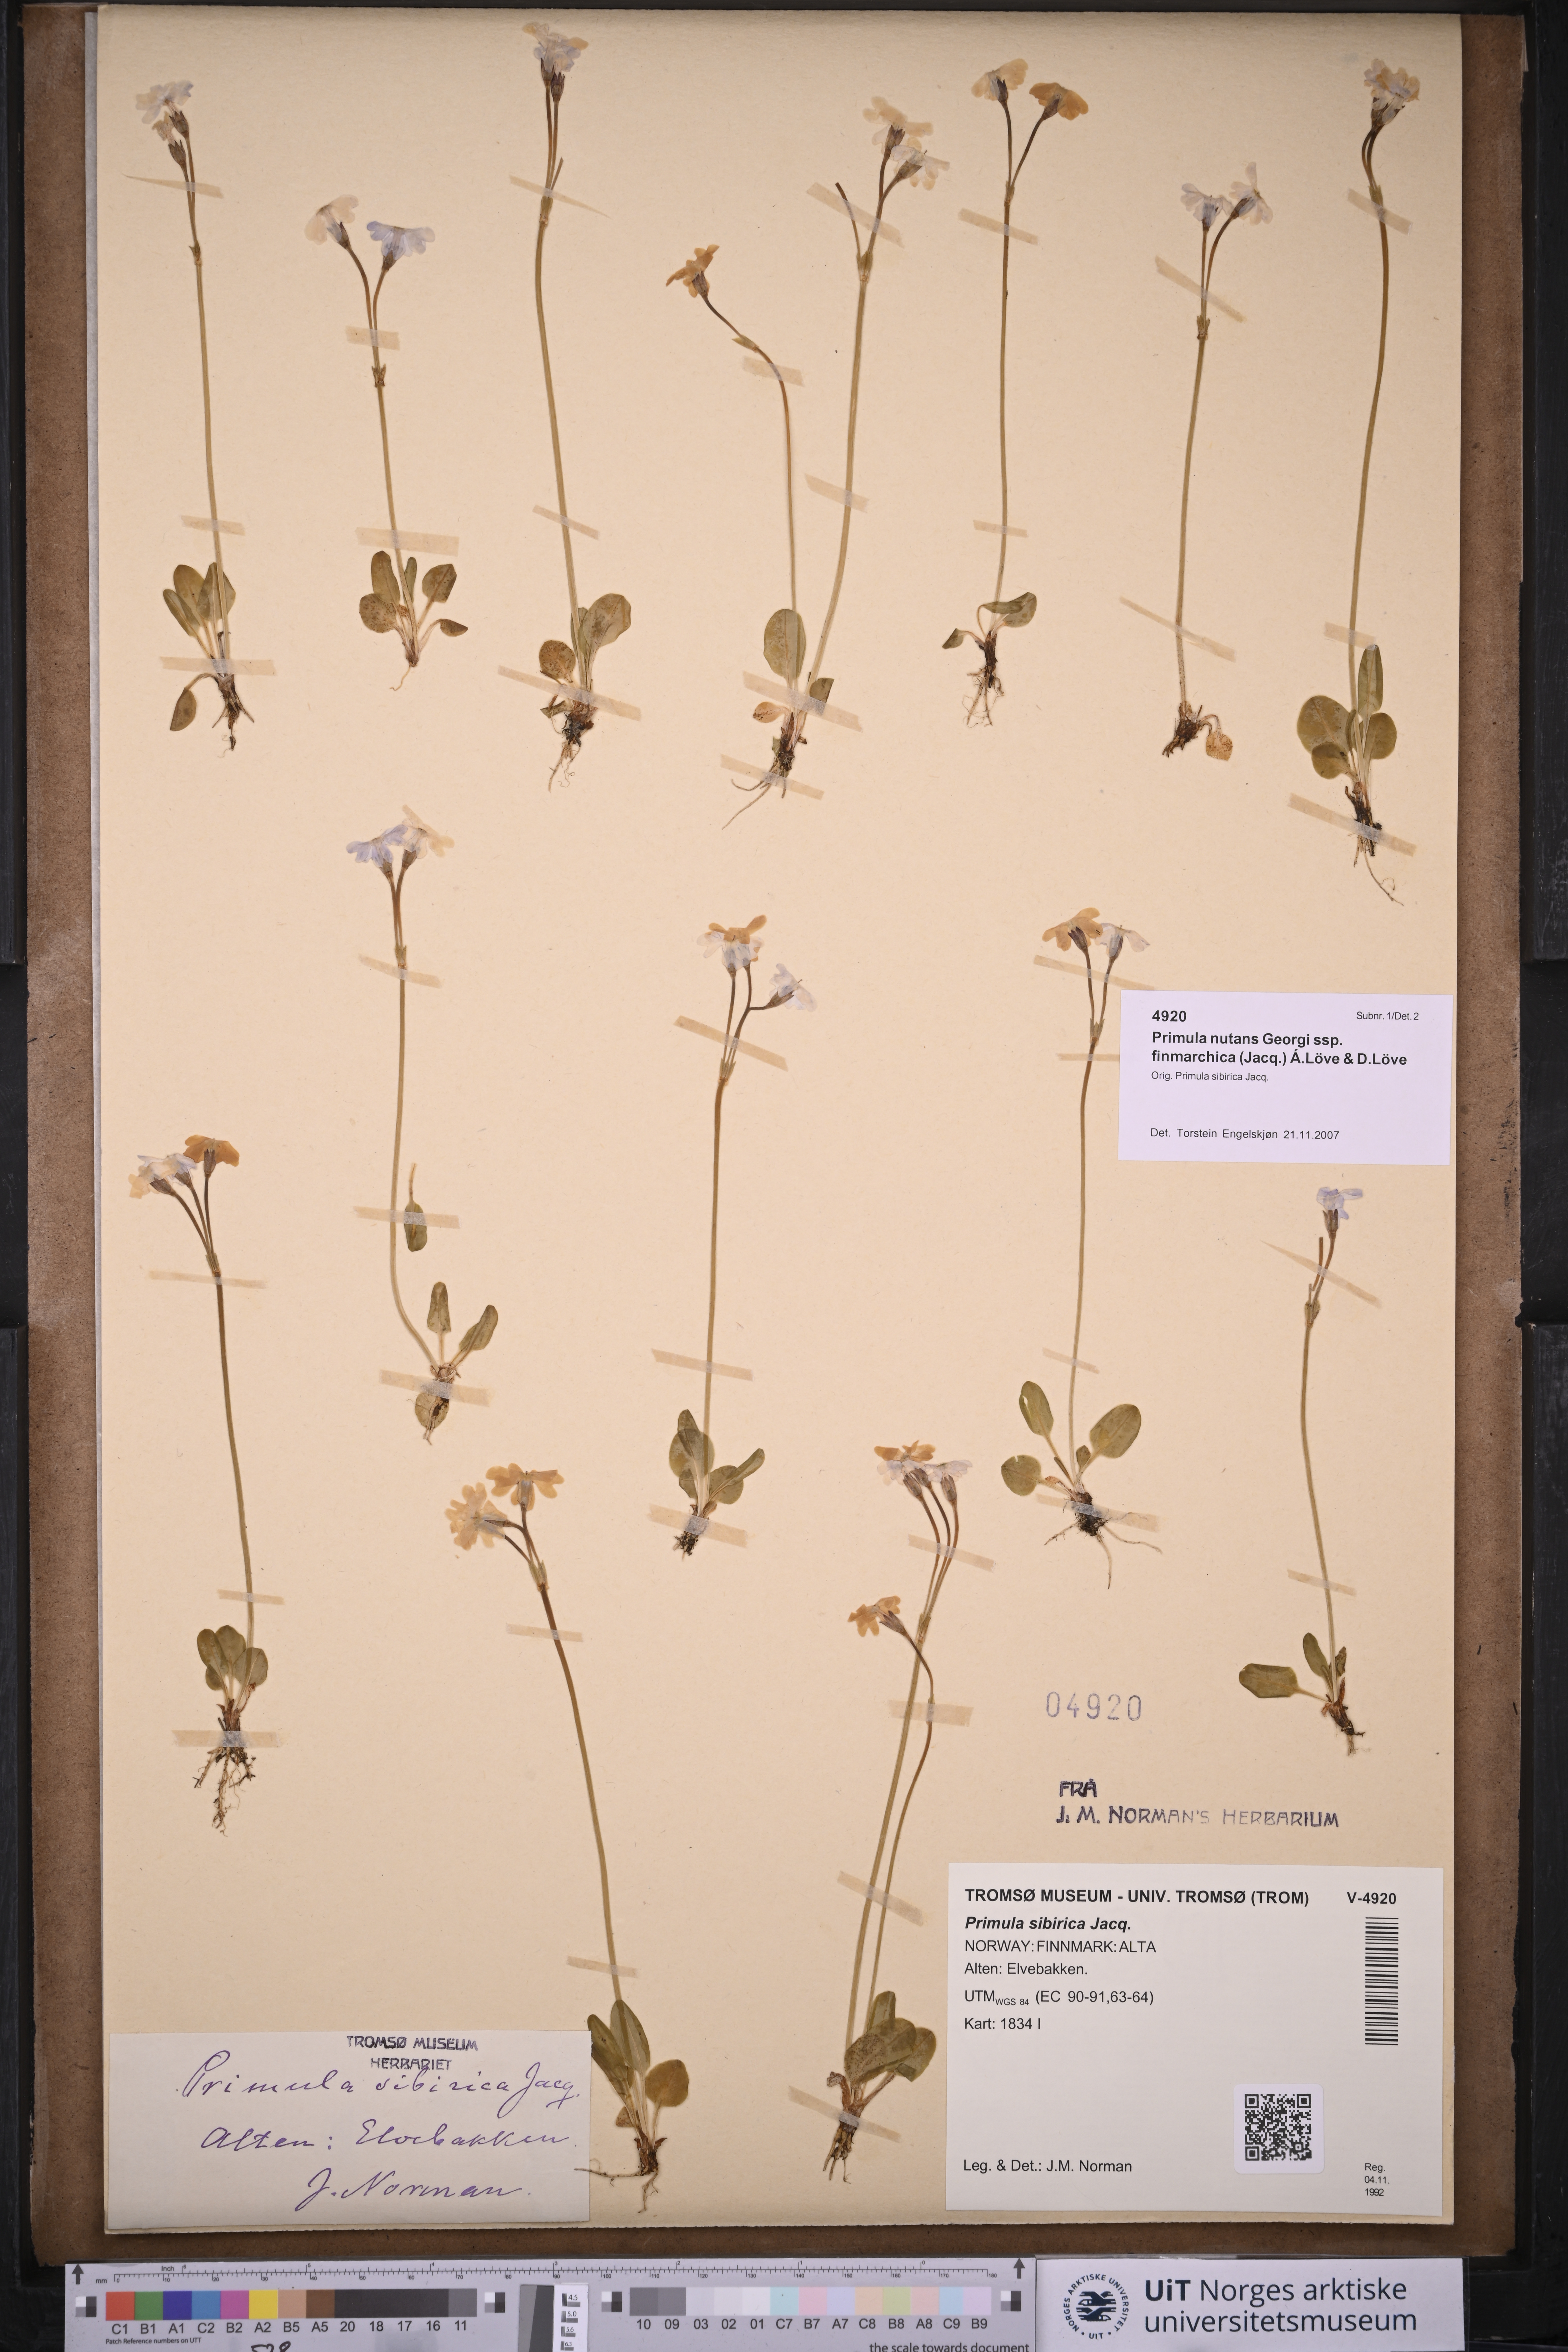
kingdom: Plantae
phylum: Tracheophyta
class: Magnoliopsida
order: Ericales
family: Primulaceae
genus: Primula
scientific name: Primula nutans
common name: Siberian primrose
